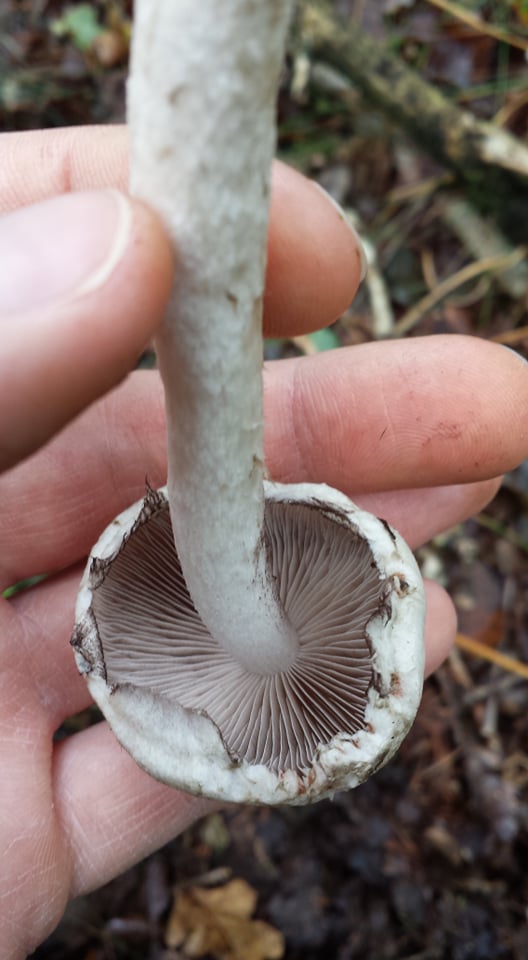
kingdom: Fungi
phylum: Basidiomycota
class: Agaricomycetes
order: Agaricales
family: Psathyrellaceae
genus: Psathyrella
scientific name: Psathyrella
